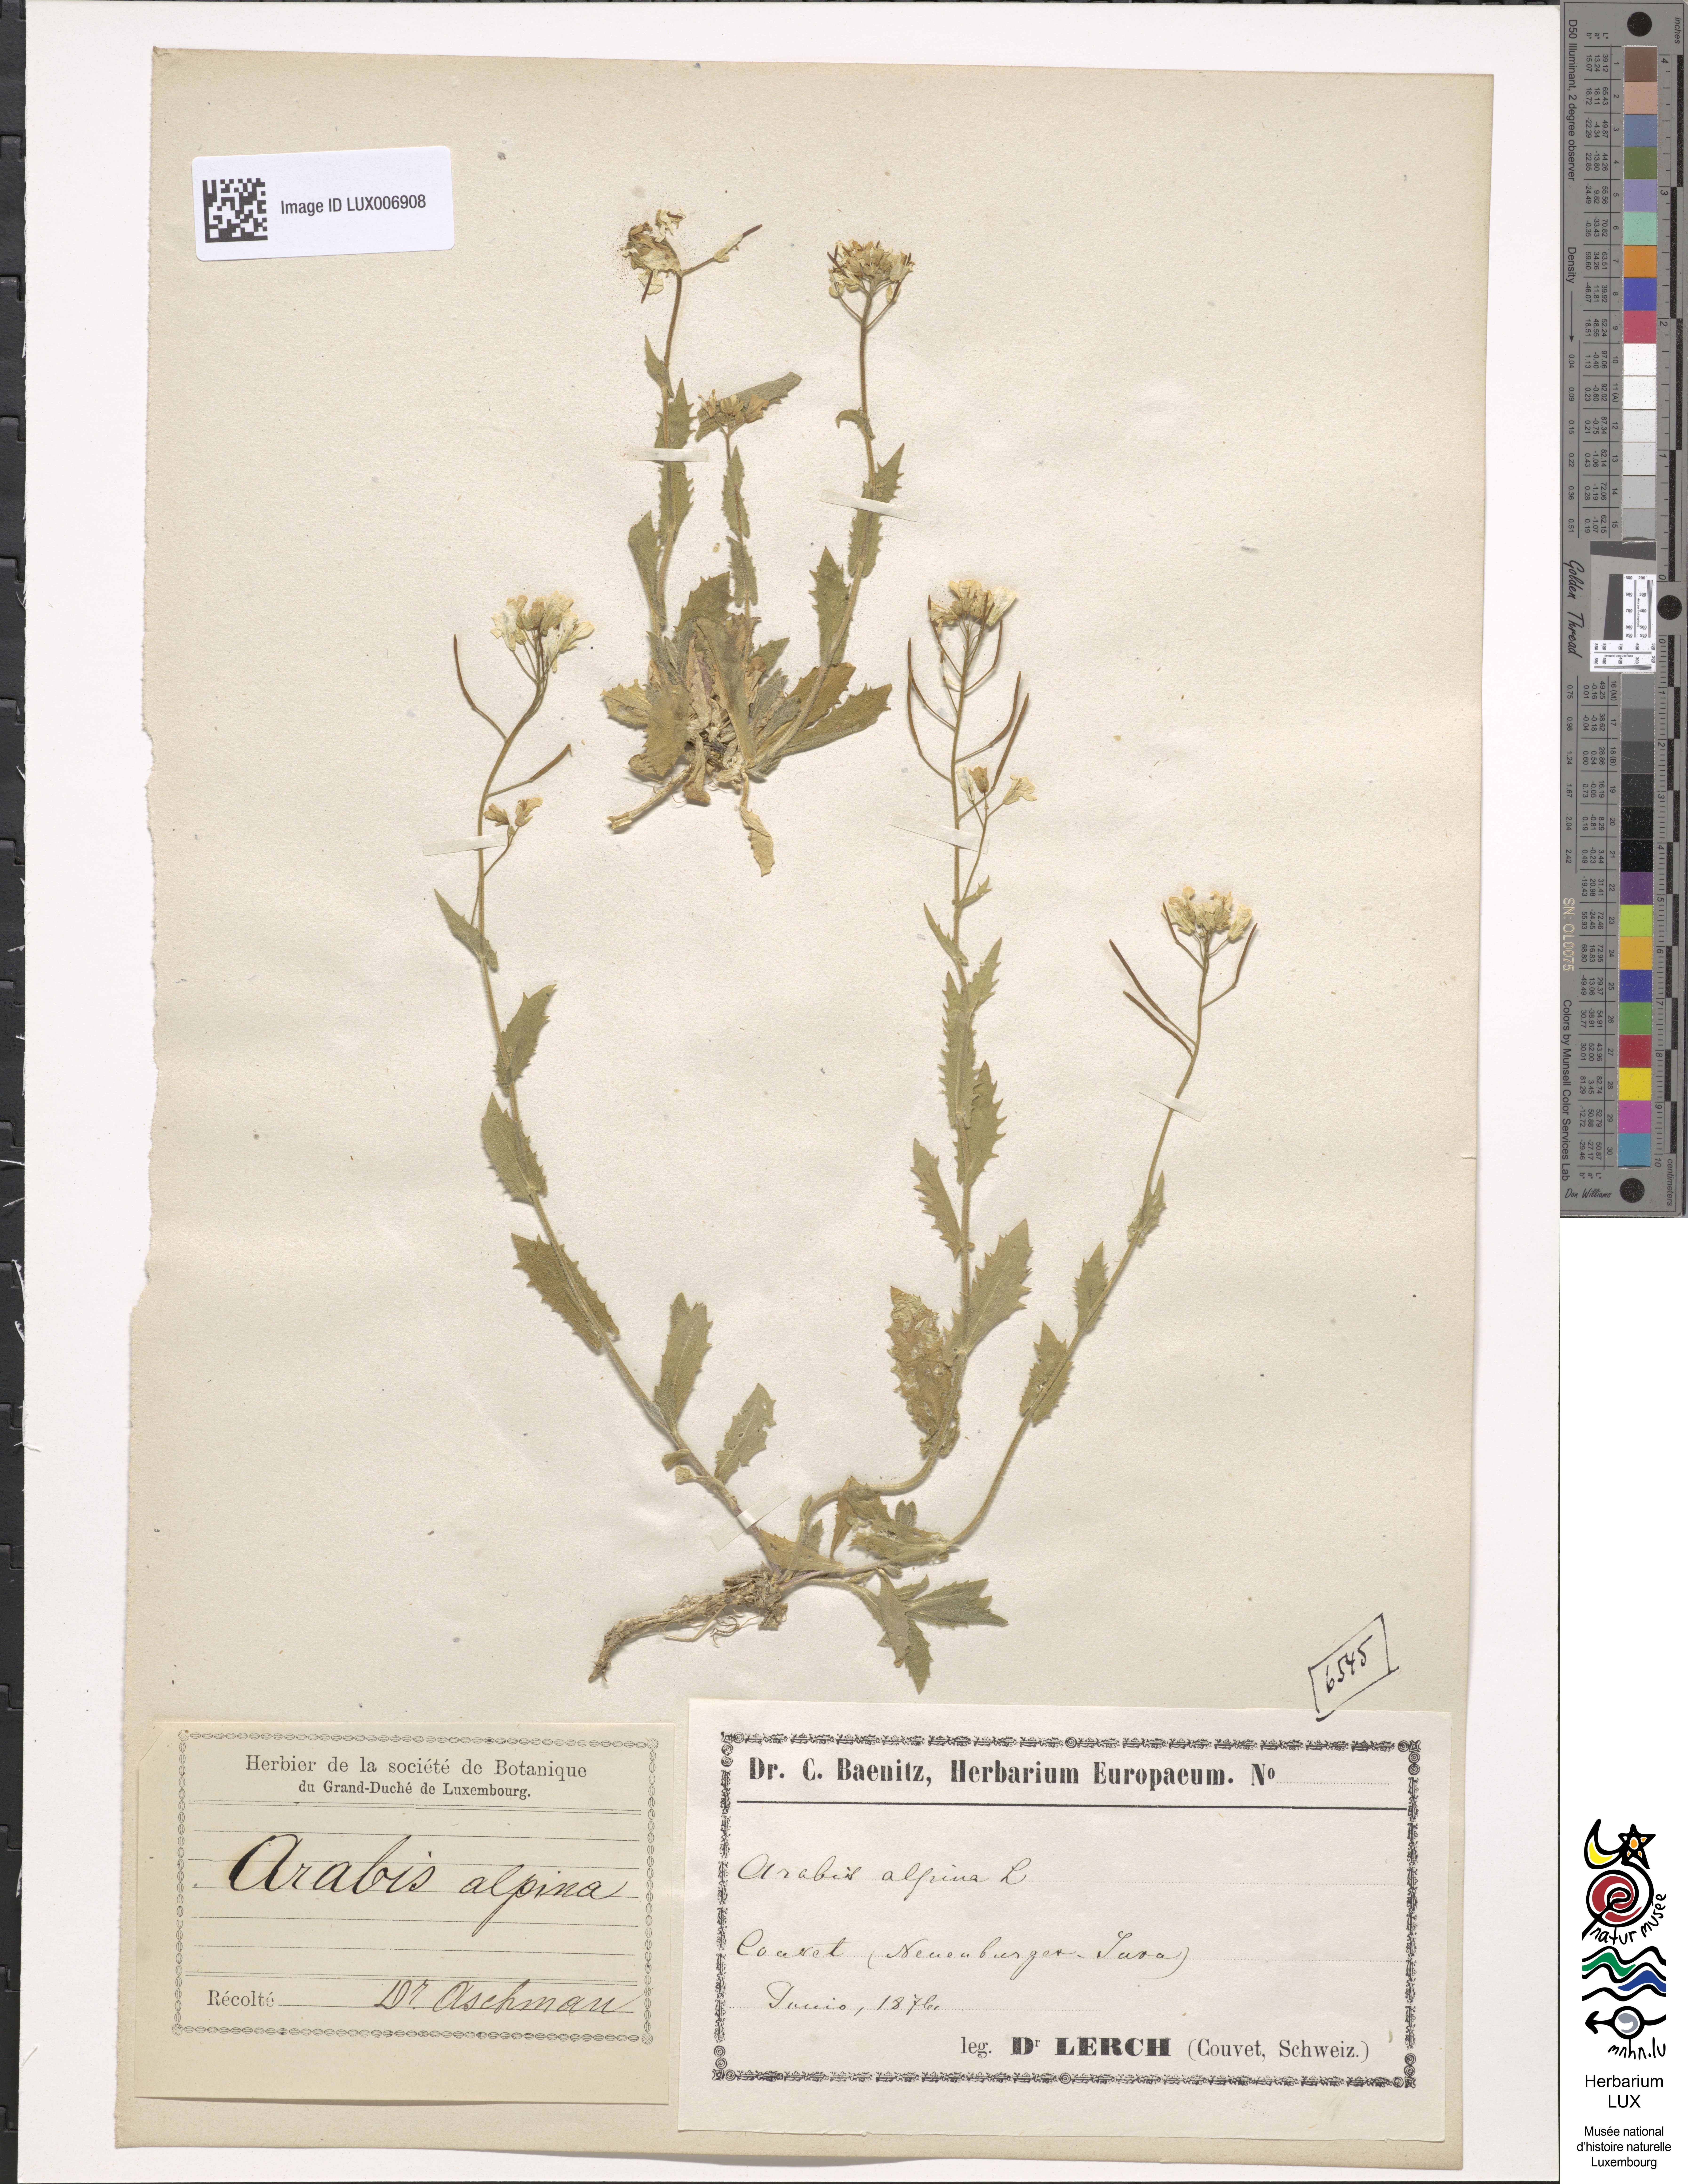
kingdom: Plantae
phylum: Tracheophyta
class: Magnoliopsida
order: Brassicales
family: Brassicaceae
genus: Arabis
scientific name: Arabis alpina
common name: Alpine rock-cress
